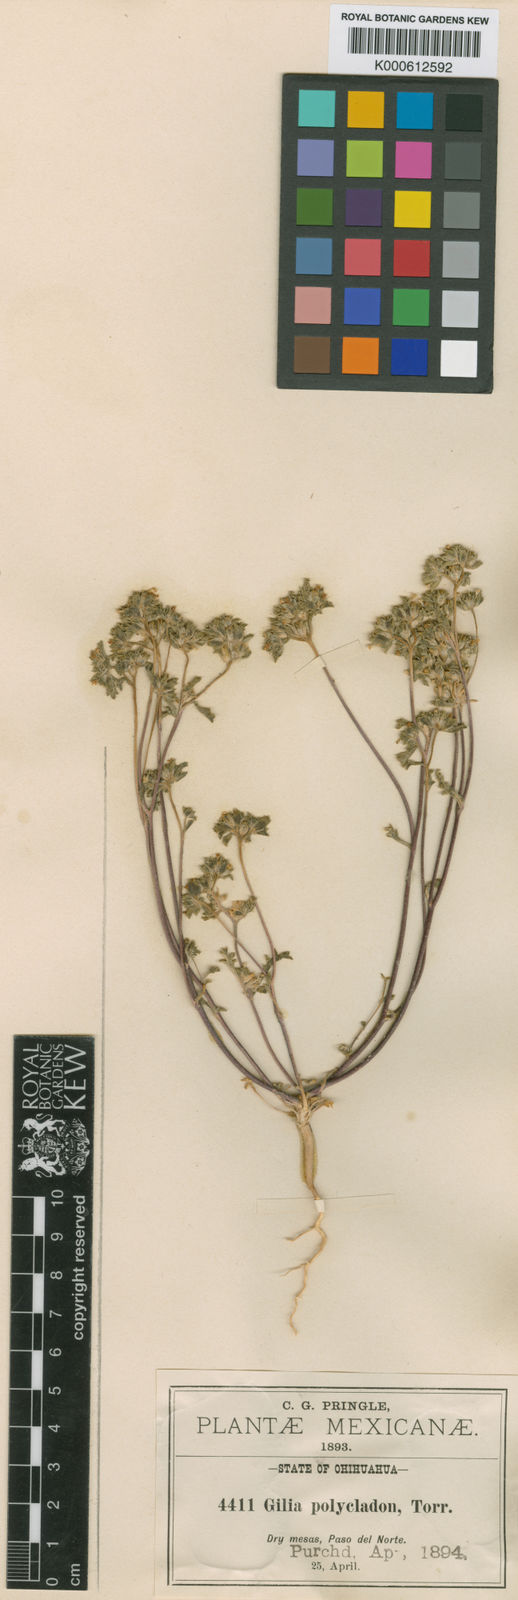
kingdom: Plantae
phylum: Tracheophyta
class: Magnoliopsida
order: Ericales
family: Polemoniaceae
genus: Ipomopsis
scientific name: Ipomopsis polycladon
